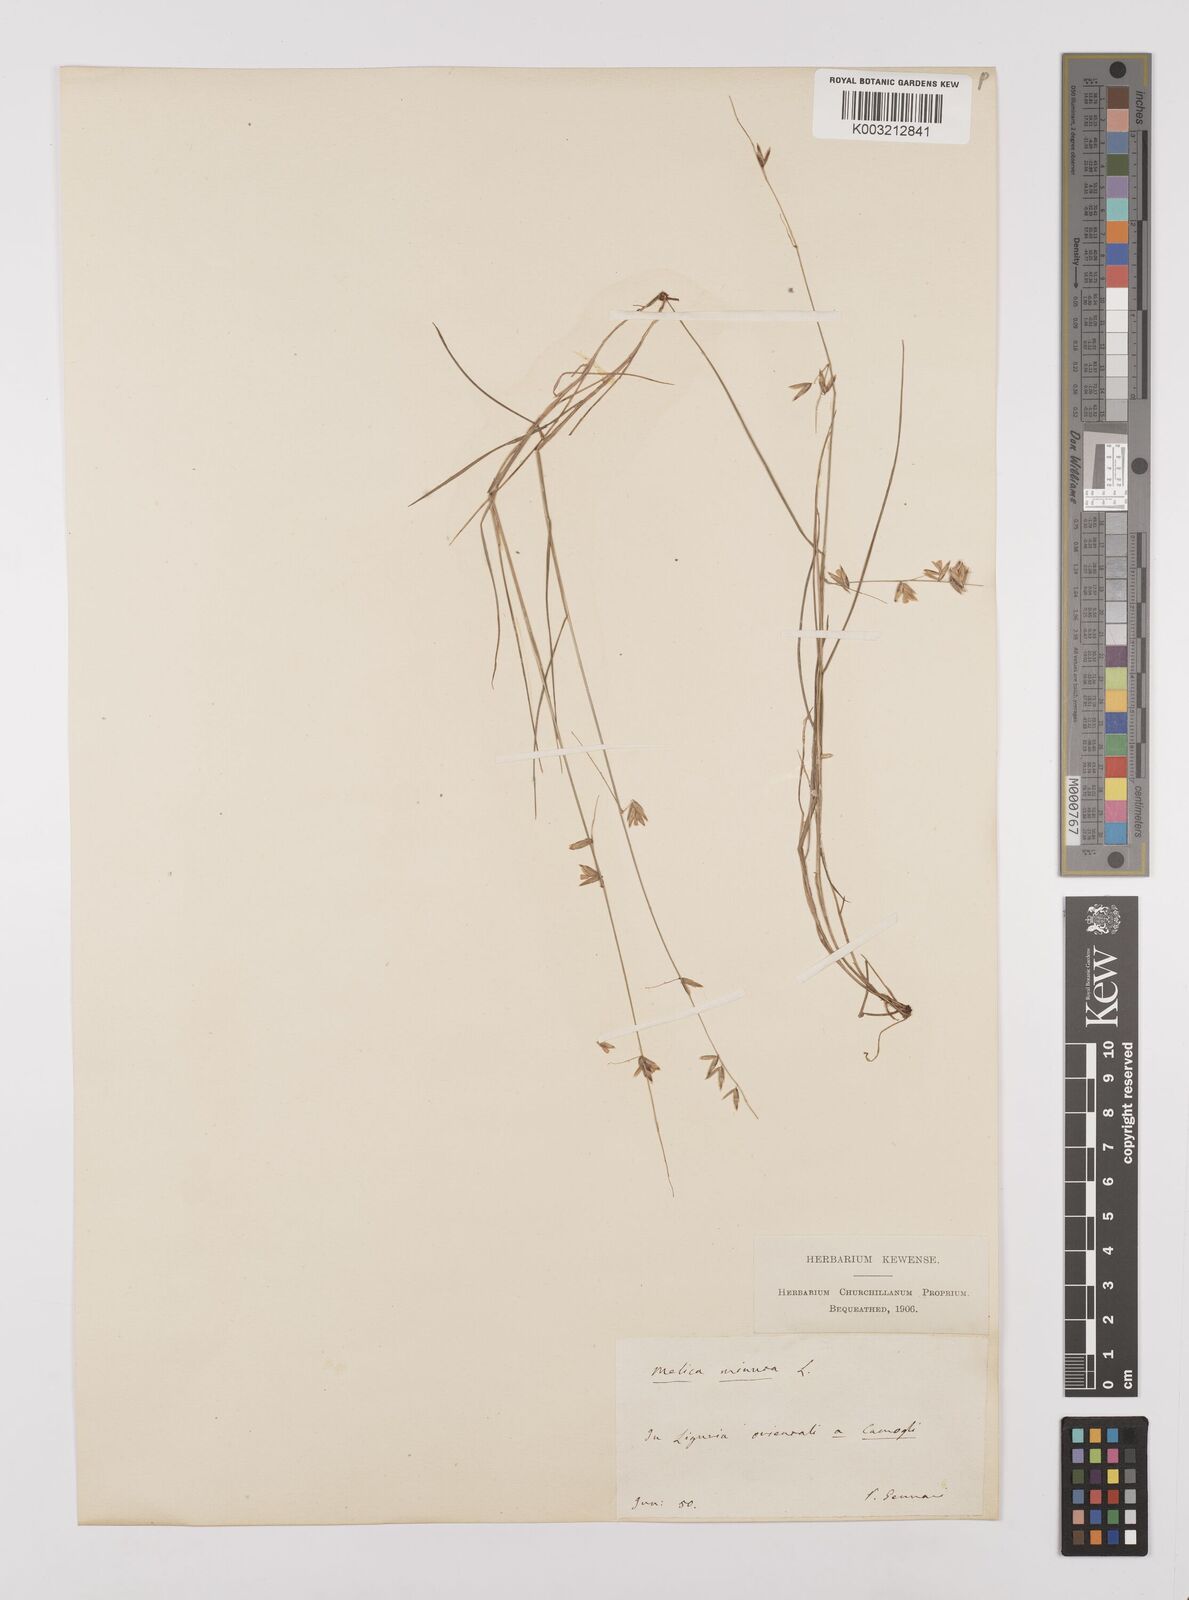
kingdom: Plantae
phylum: Tracheophyta
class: Liliopsida
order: Poales
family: Poaceae
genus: Melica
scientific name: Melica minuta
